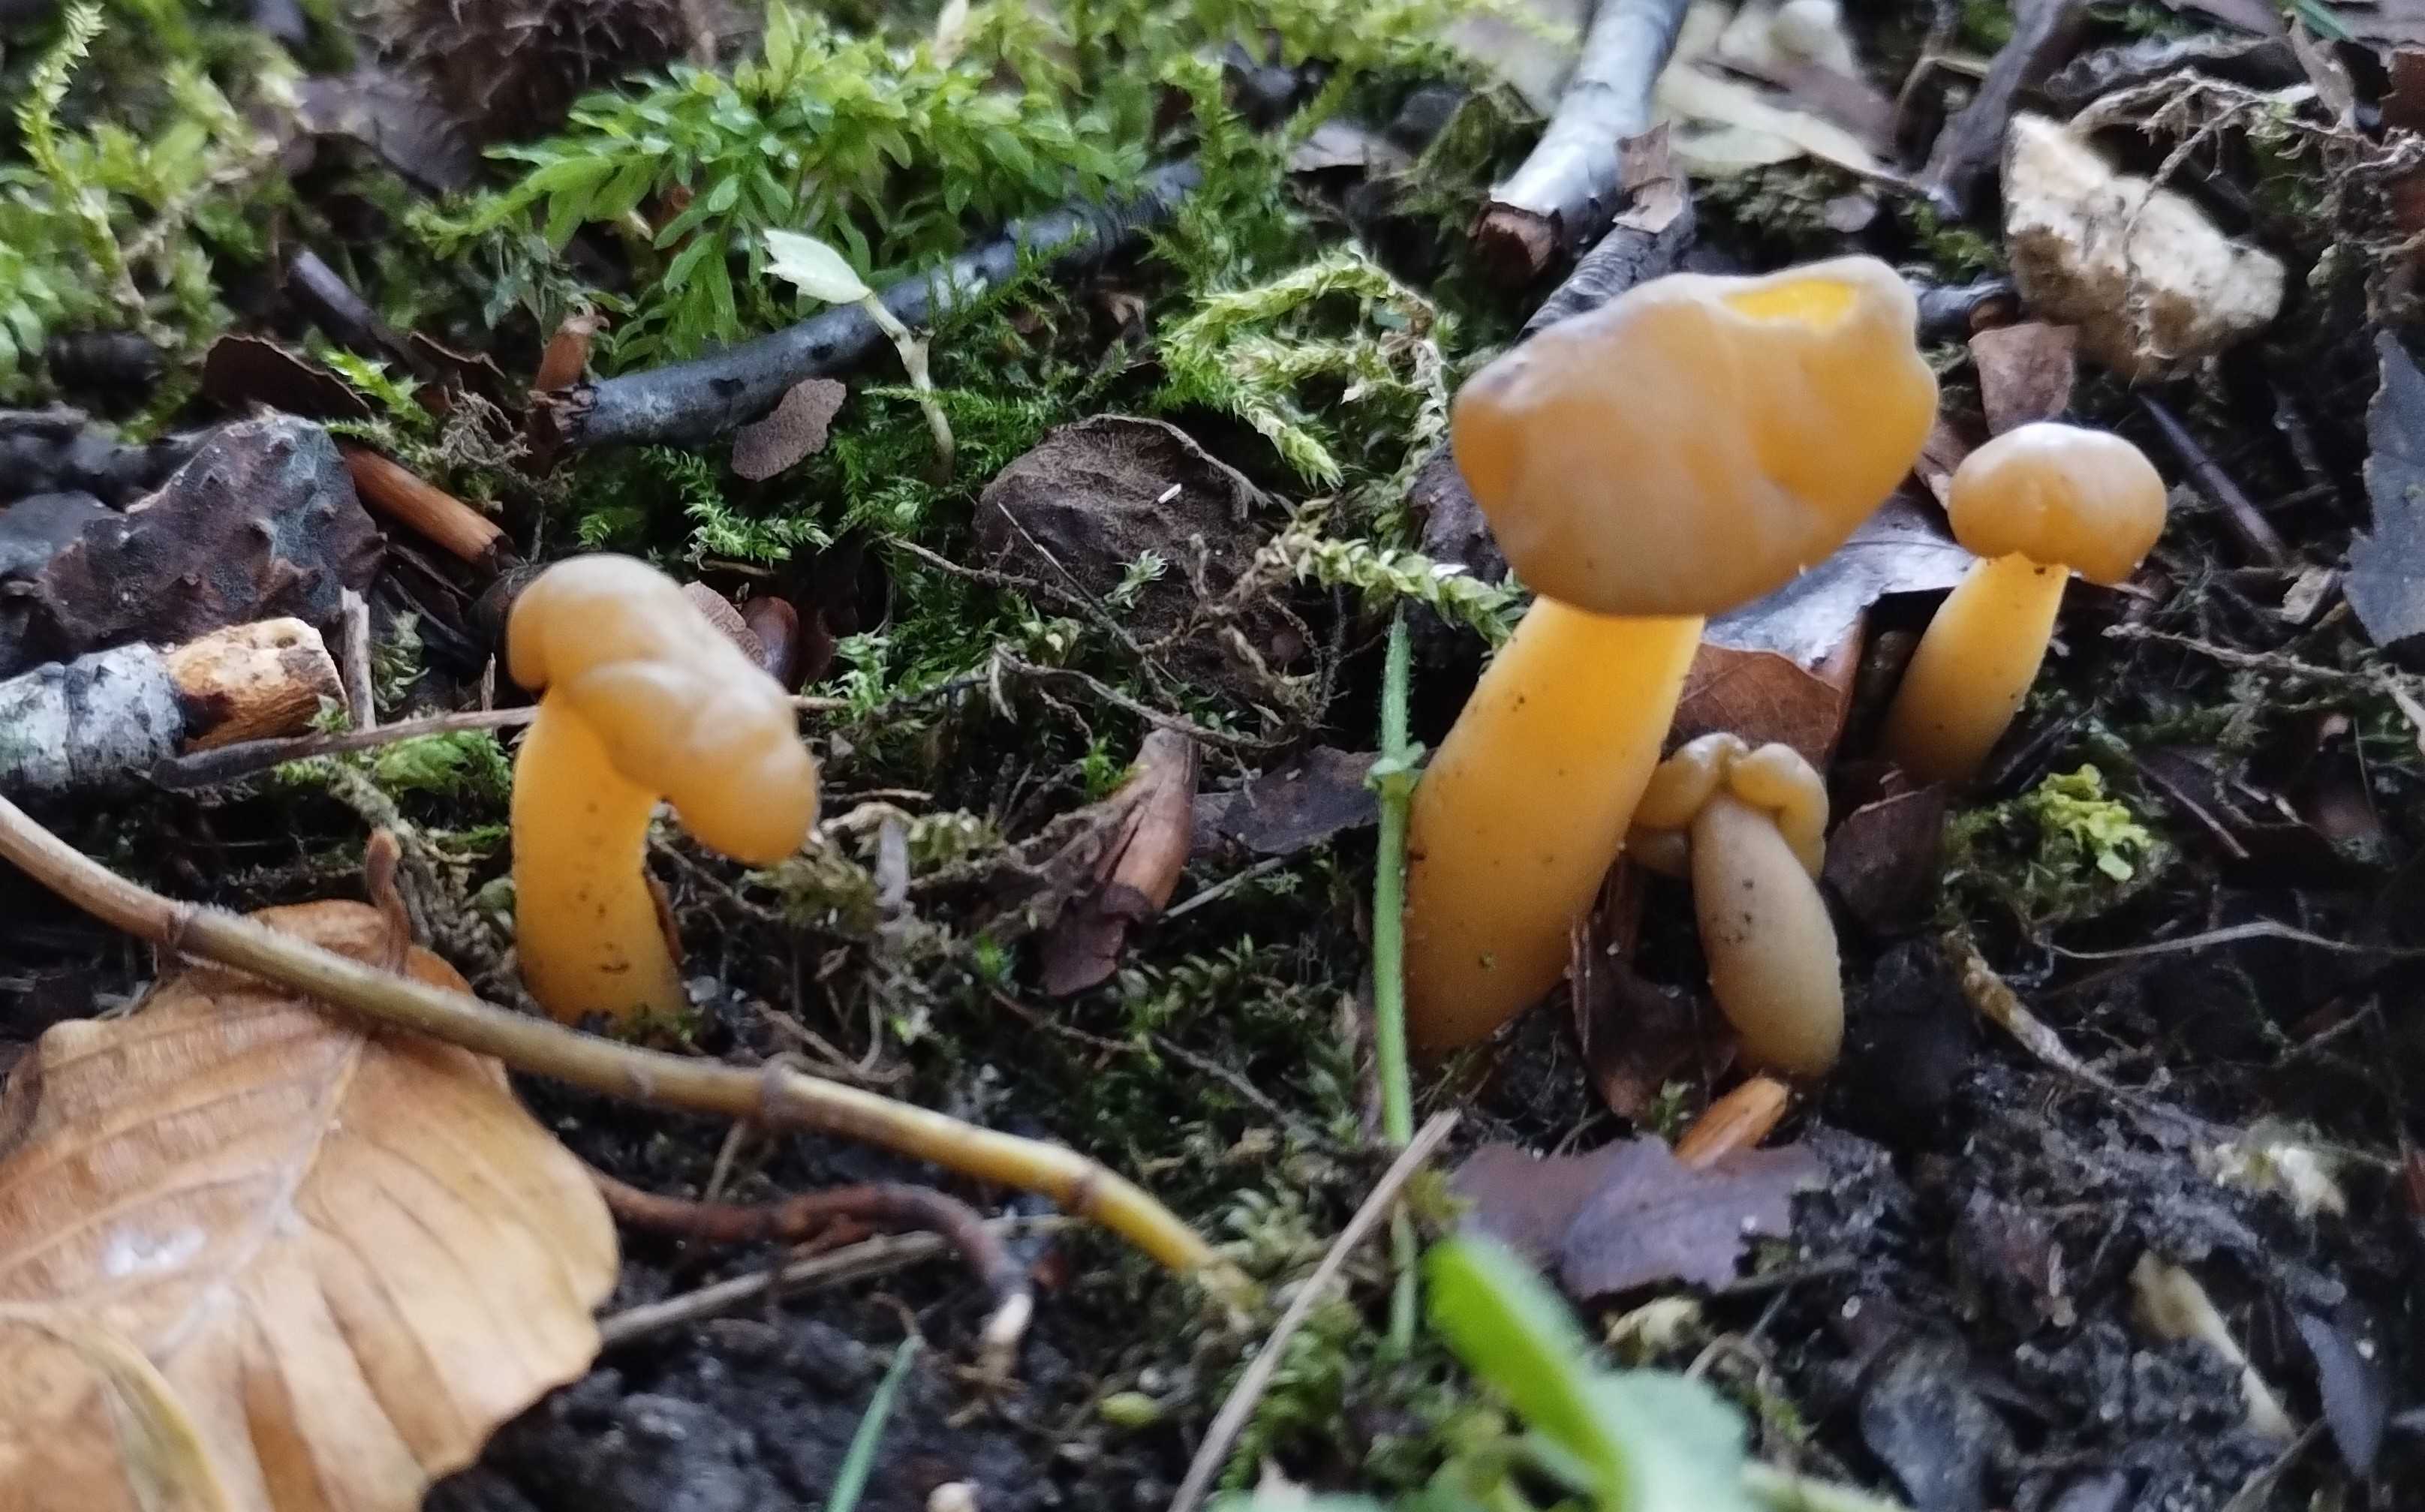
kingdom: Fungi
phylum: Ascomycota
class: Leotiomycetes
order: Leotiales
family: Leotiaceae
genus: Leotia
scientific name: Leotia lubrica
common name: ravsvamp
